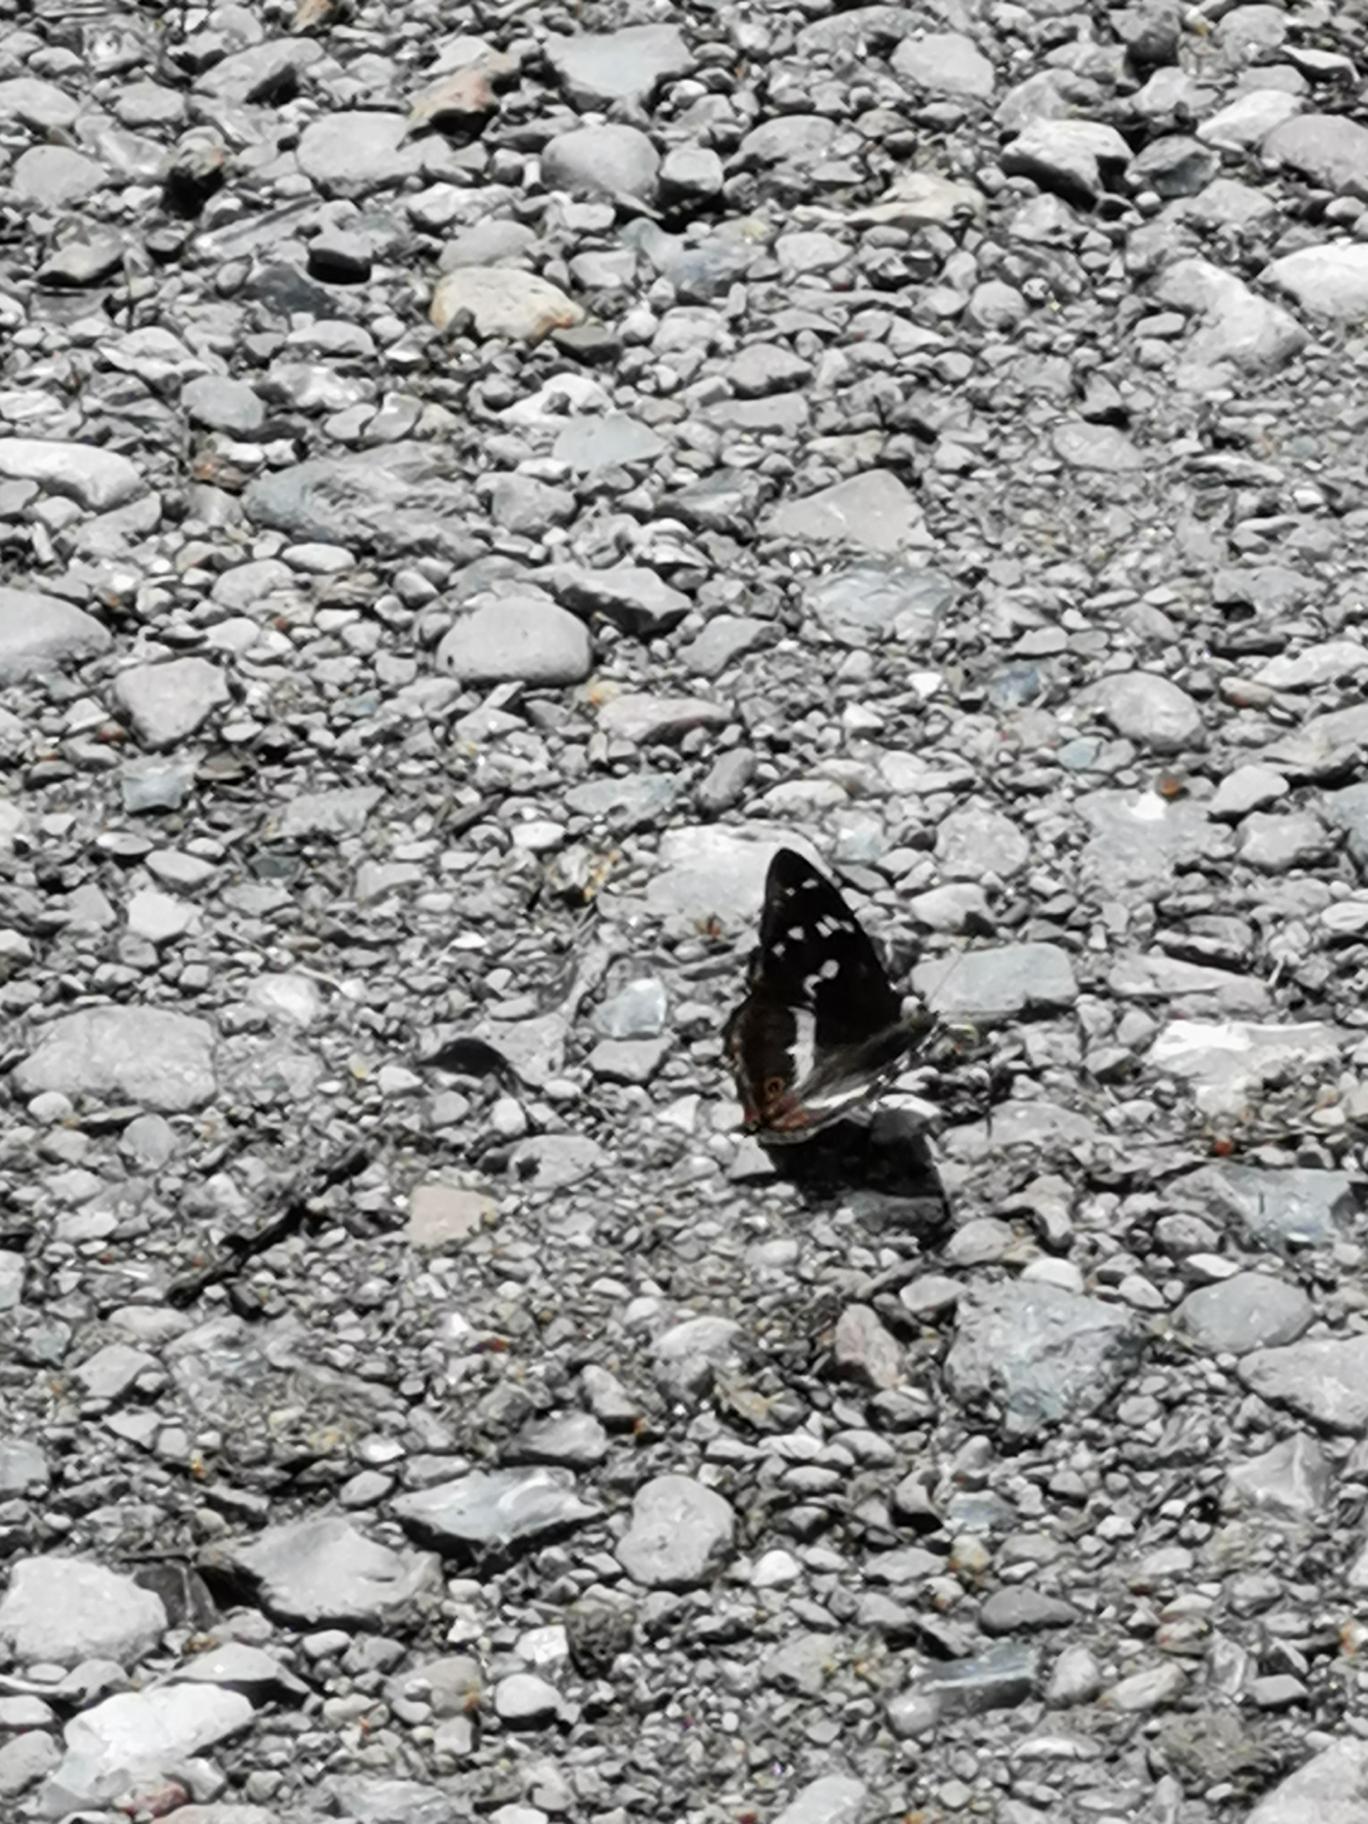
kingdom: Animalia
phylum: Arthropoda
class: Insecta
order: Lepidoptera
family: Nymphalidae
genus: Apatura
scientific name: Apatura iris
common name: Iris
